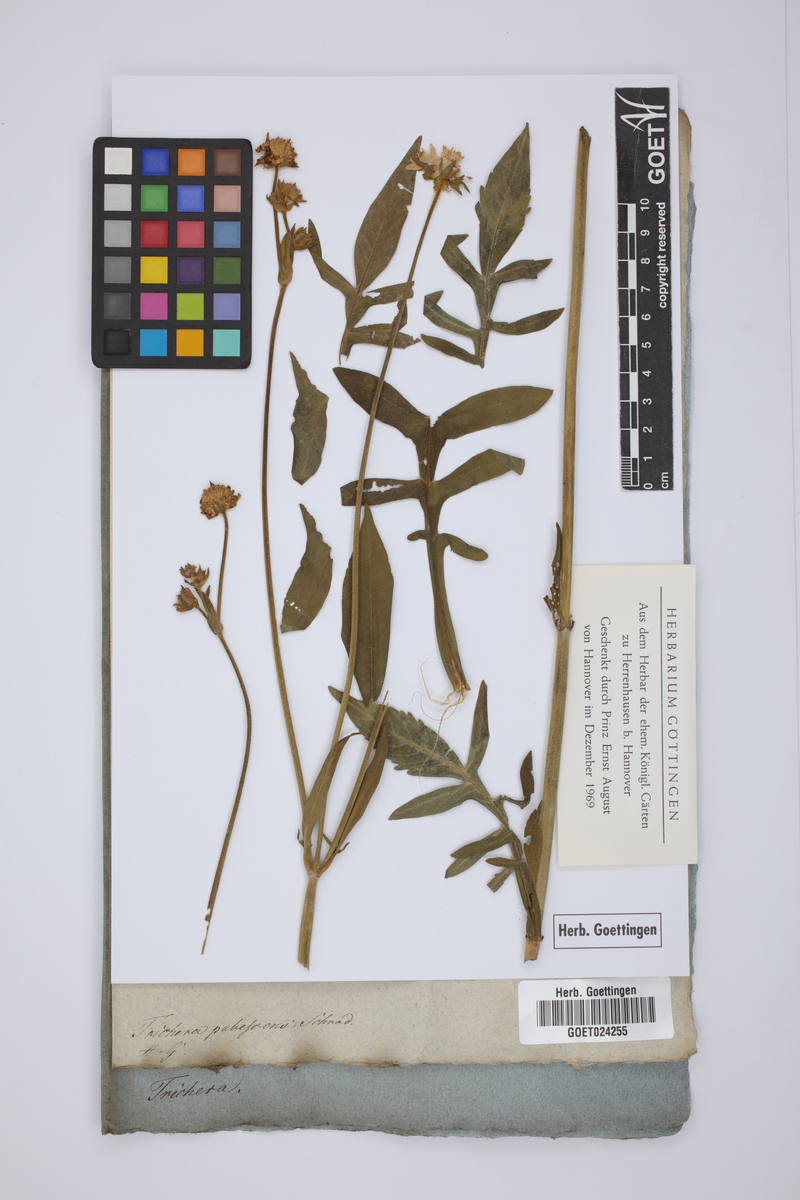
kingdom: Plantae
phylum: Tracheophyta
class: Magnoliopsida
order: Dipsacales
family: Caprifoliaceae
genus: Trichera
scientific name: Trichera pubescens
